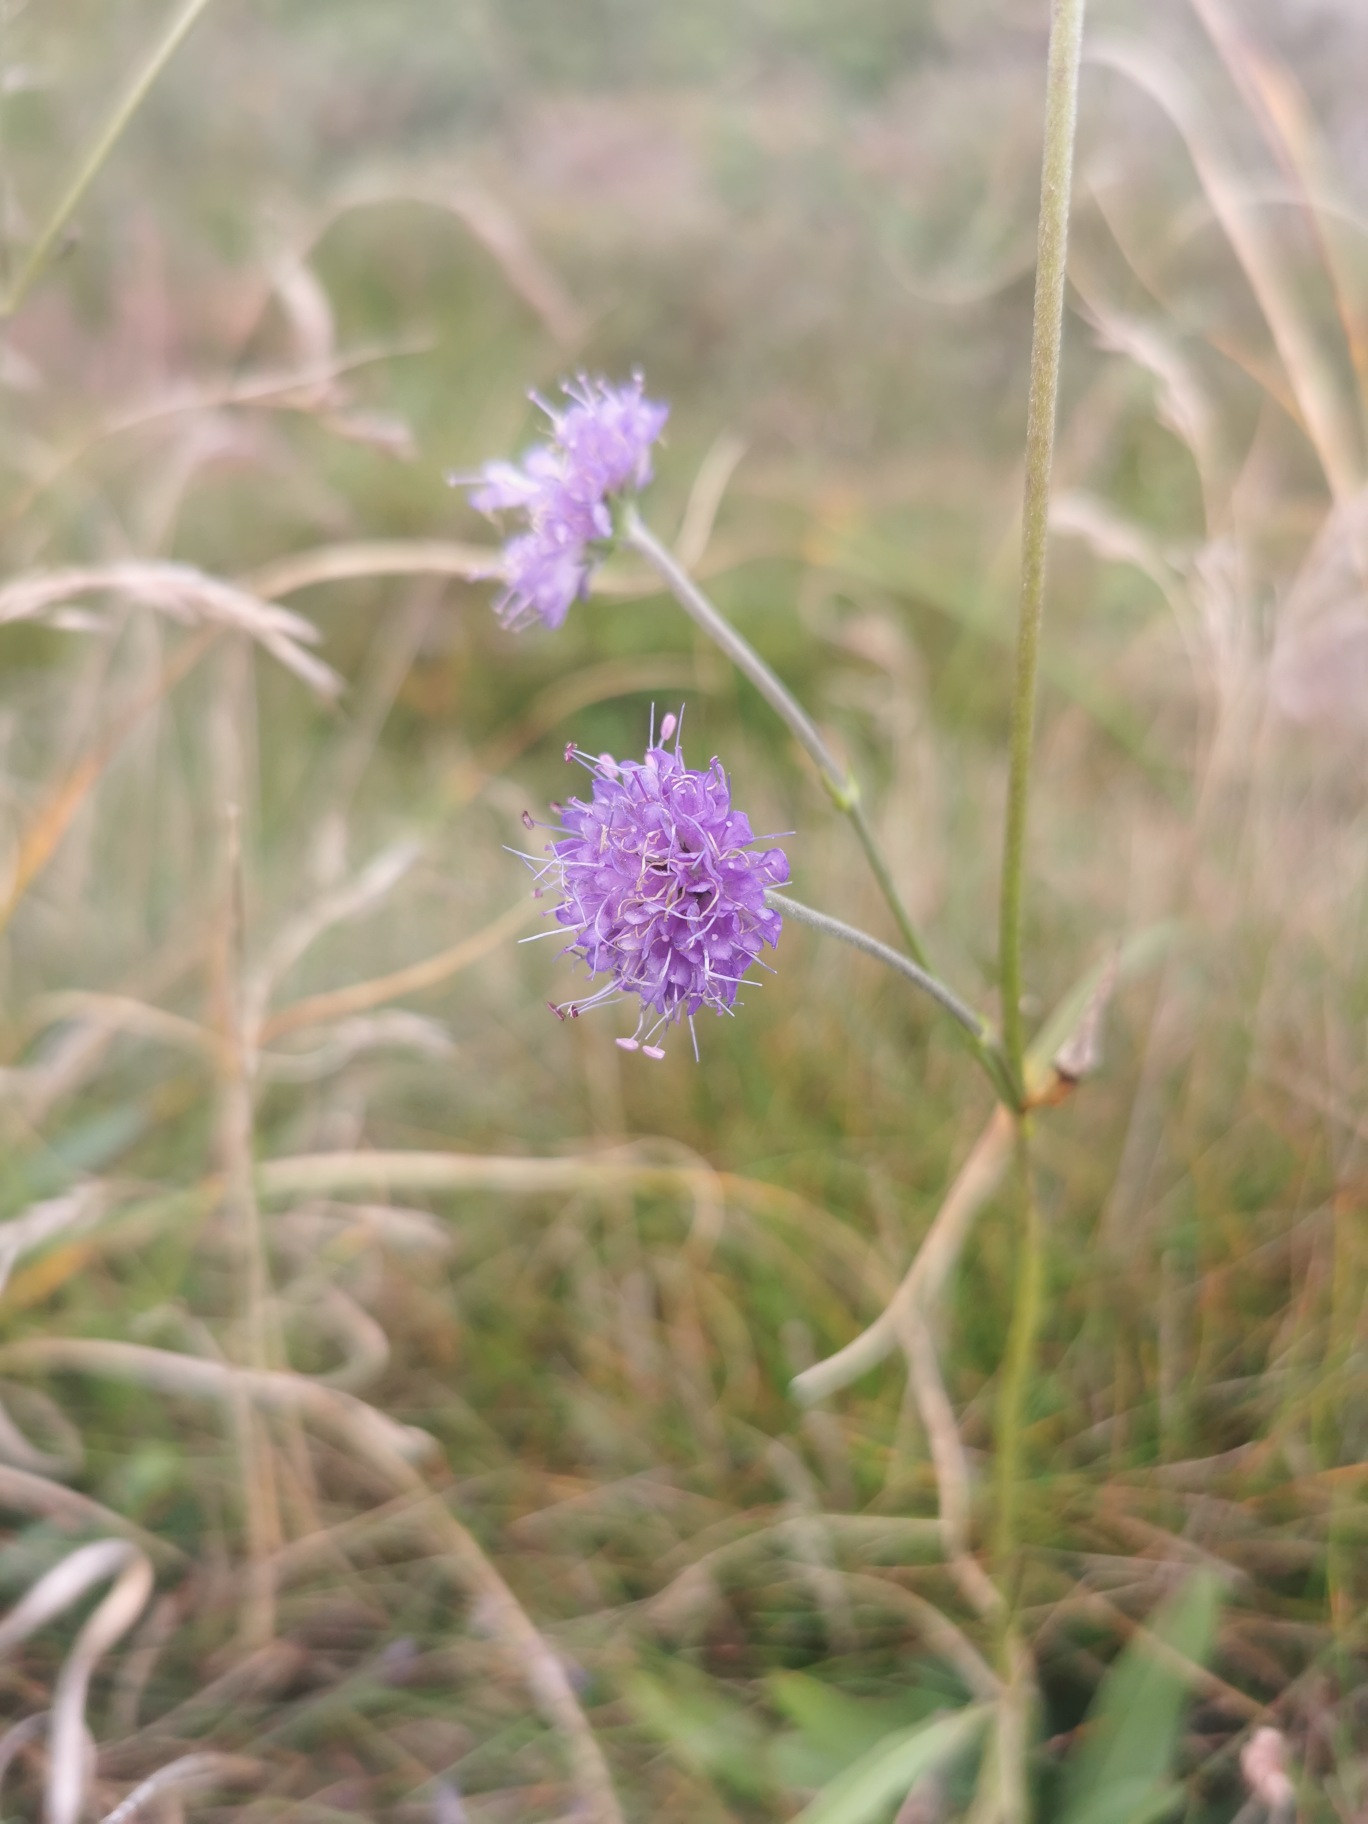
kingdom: Plantae
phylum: Tracheophyta
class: Magnoliopsida
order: Dipsacales
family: Caprifoliaceae
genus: Succisa
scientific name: Succisa pratensis
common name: Djævelsbid
